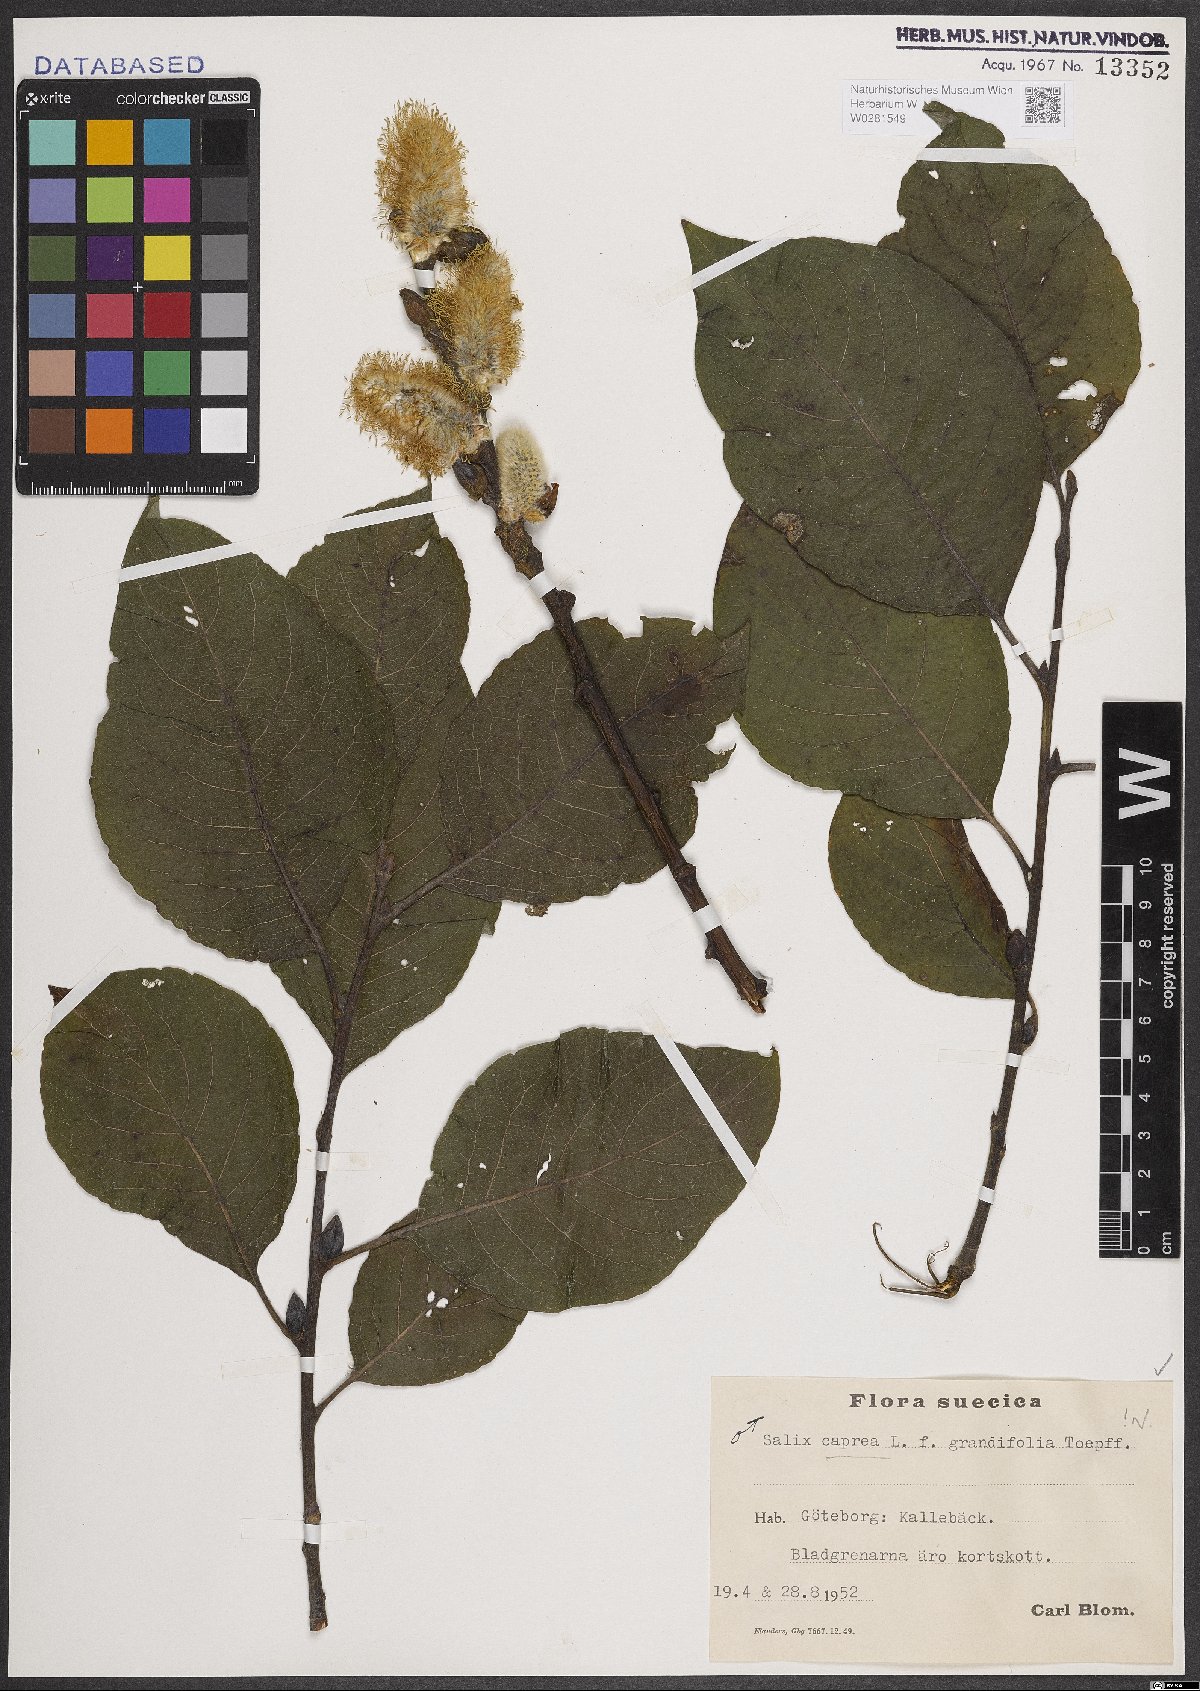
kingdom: Plantae
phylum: Tracheophyta
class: Magnoliopsida
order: Malpighiales
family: Salicaceae
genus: Salix
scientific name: Salix caprea
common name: Goat willow
